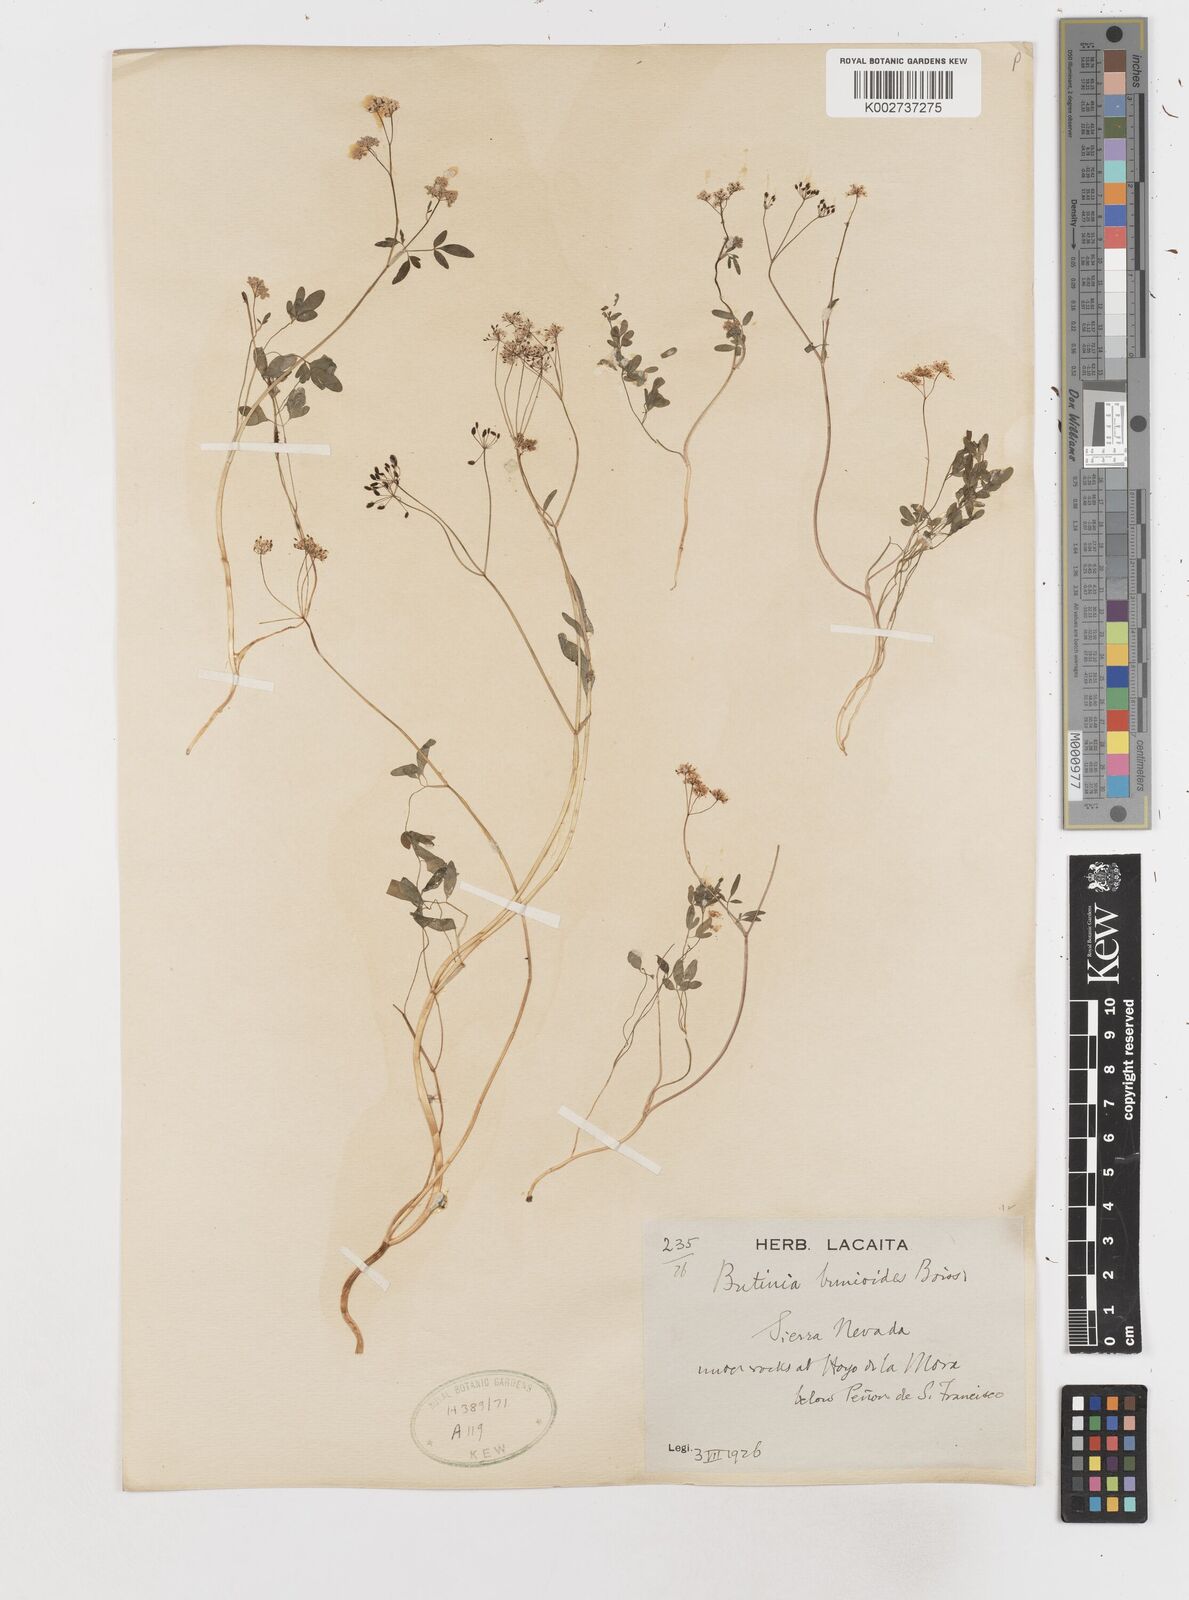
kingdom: Plantae
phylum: Tracheophyta
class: Magnoliopsida
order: Apiales
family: Apiaceae
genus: Conopodium
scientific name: Conopodium bunioides
